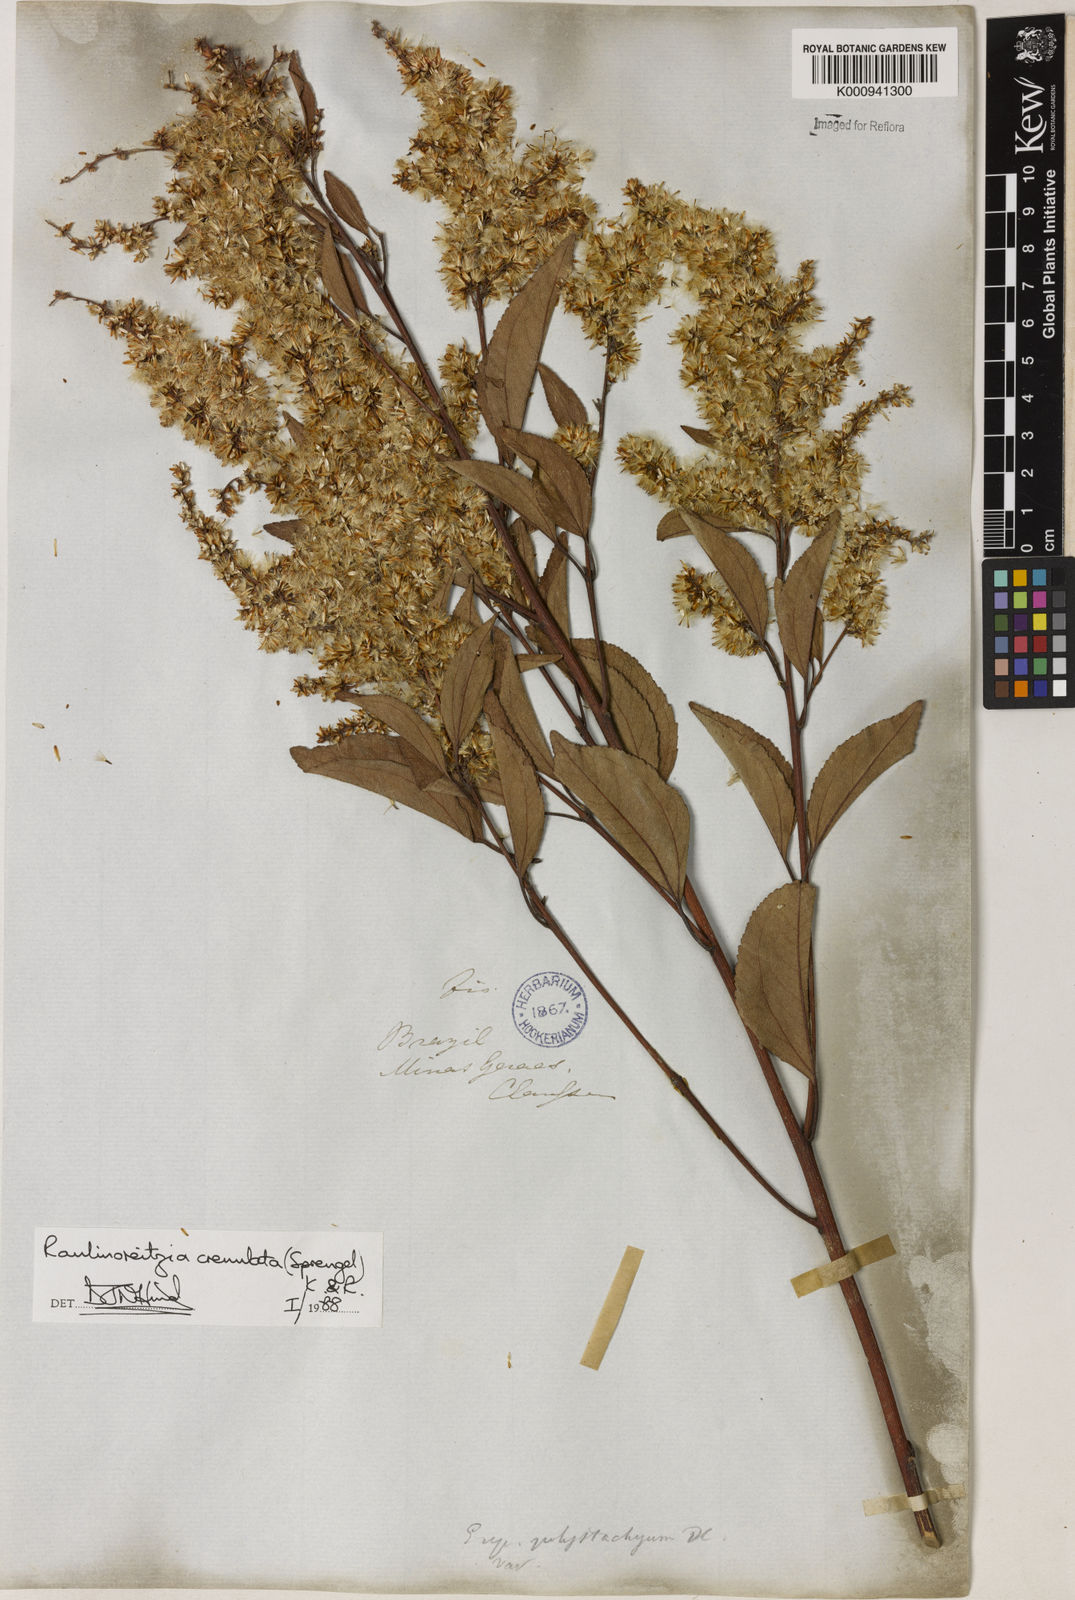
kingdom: Plantae
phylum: Tracheophyta
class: Magnoliopsida
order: Asterales
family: Asteraceae
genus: Raulinoreitzia
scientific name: Raulinoreitzia crenulata
